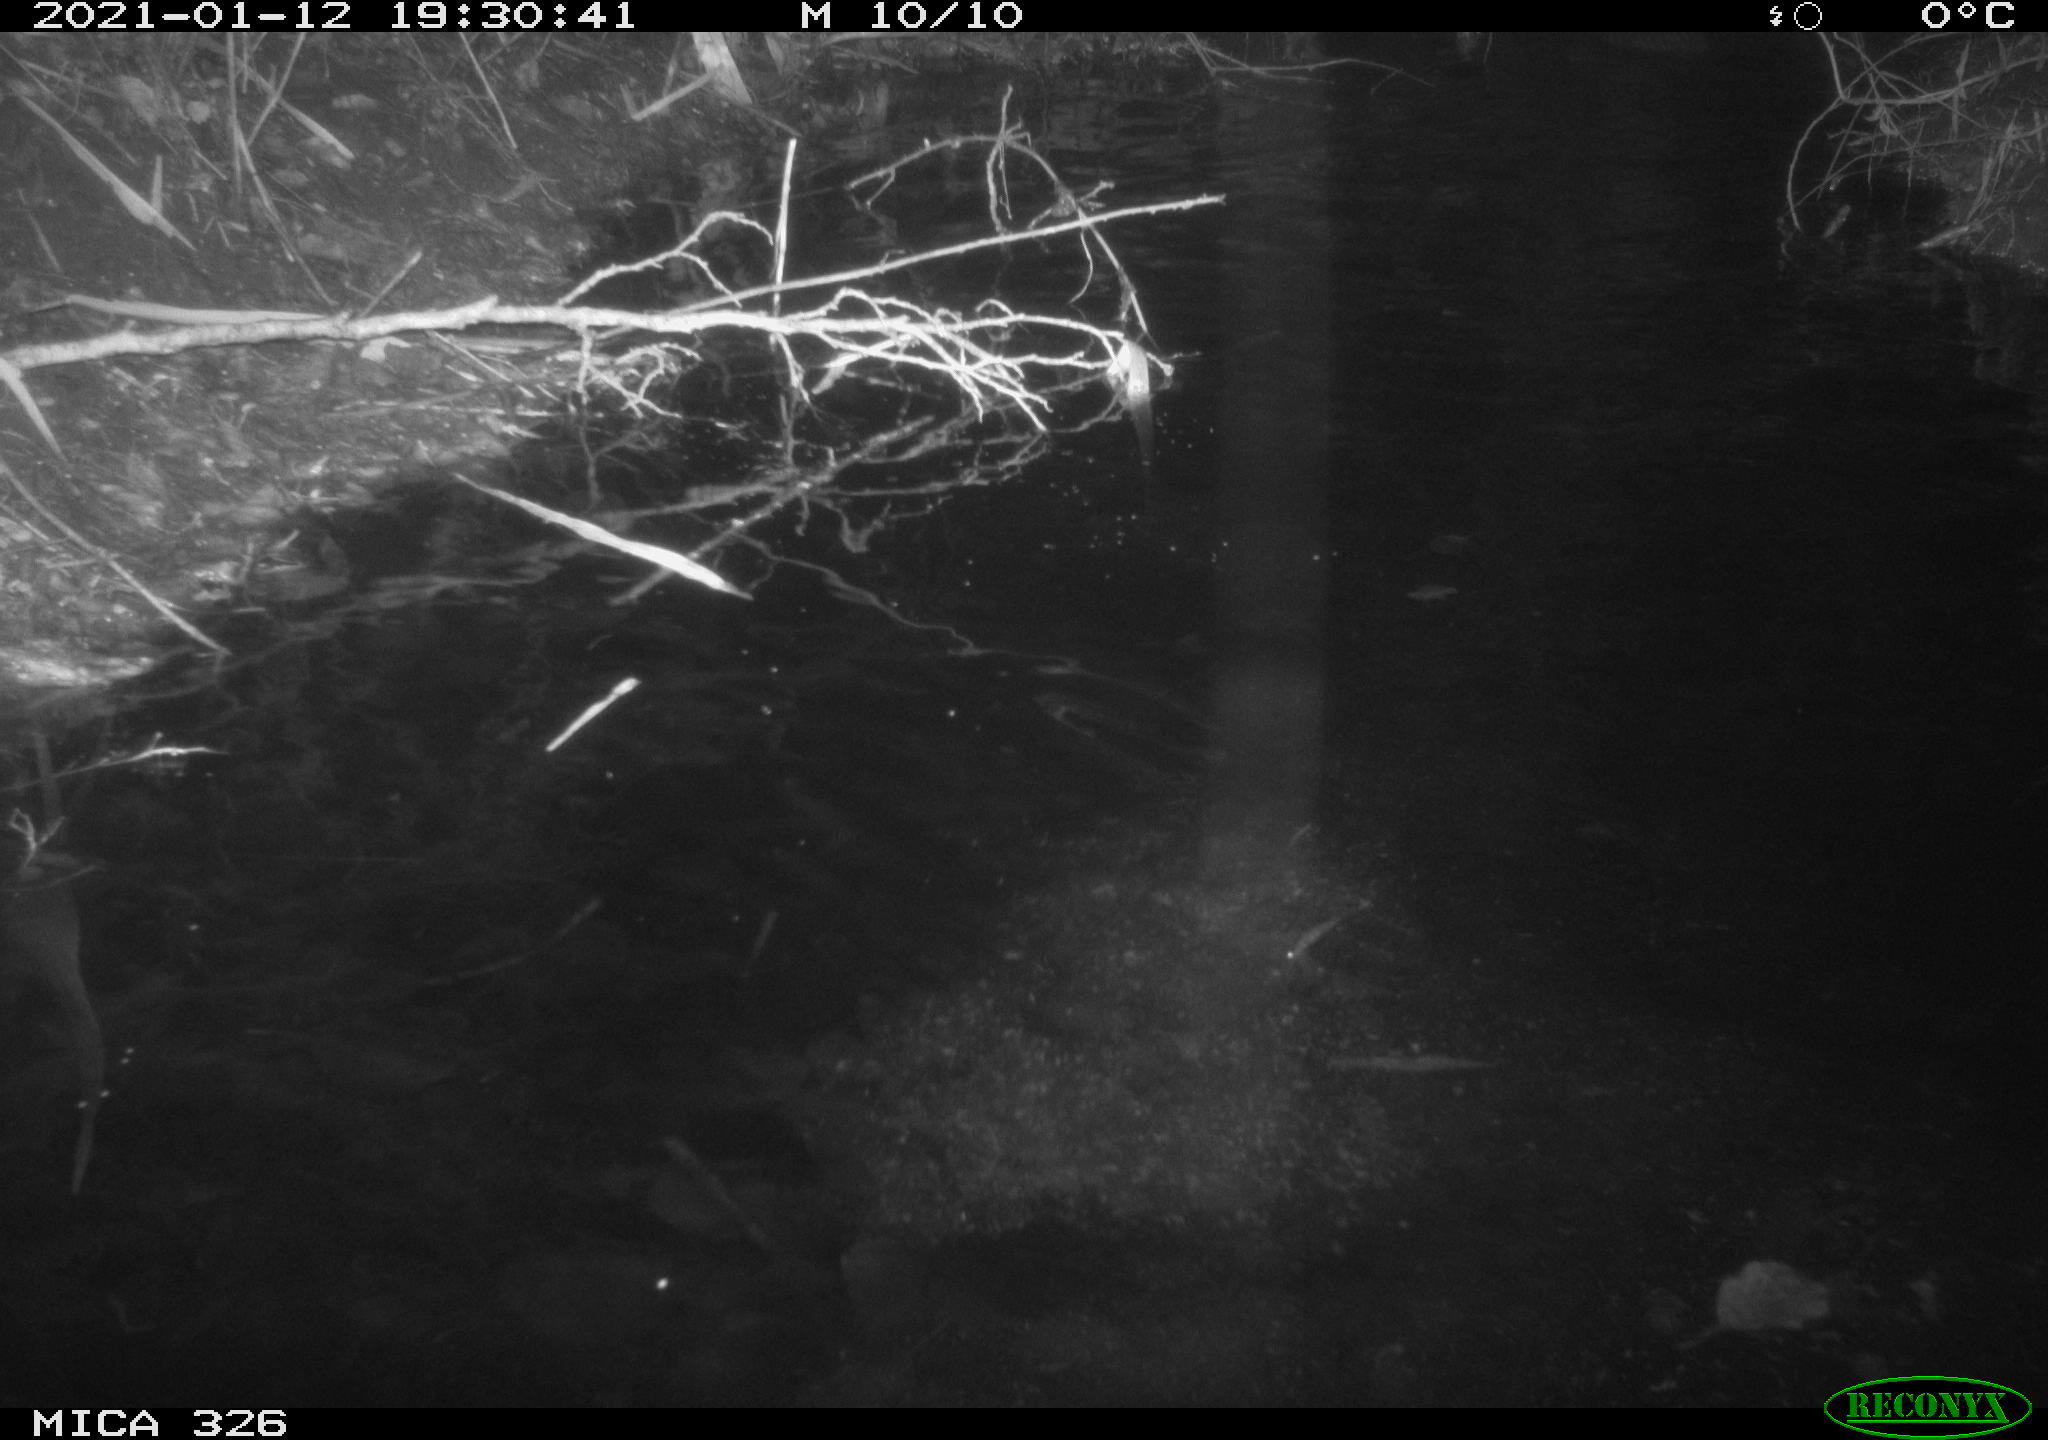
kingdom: Animalia
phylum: Chordata
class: Mammalia
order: Rodentia
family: Myocastoridae
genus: Myocastor
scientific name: Myocastor coypus
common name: Coypu
